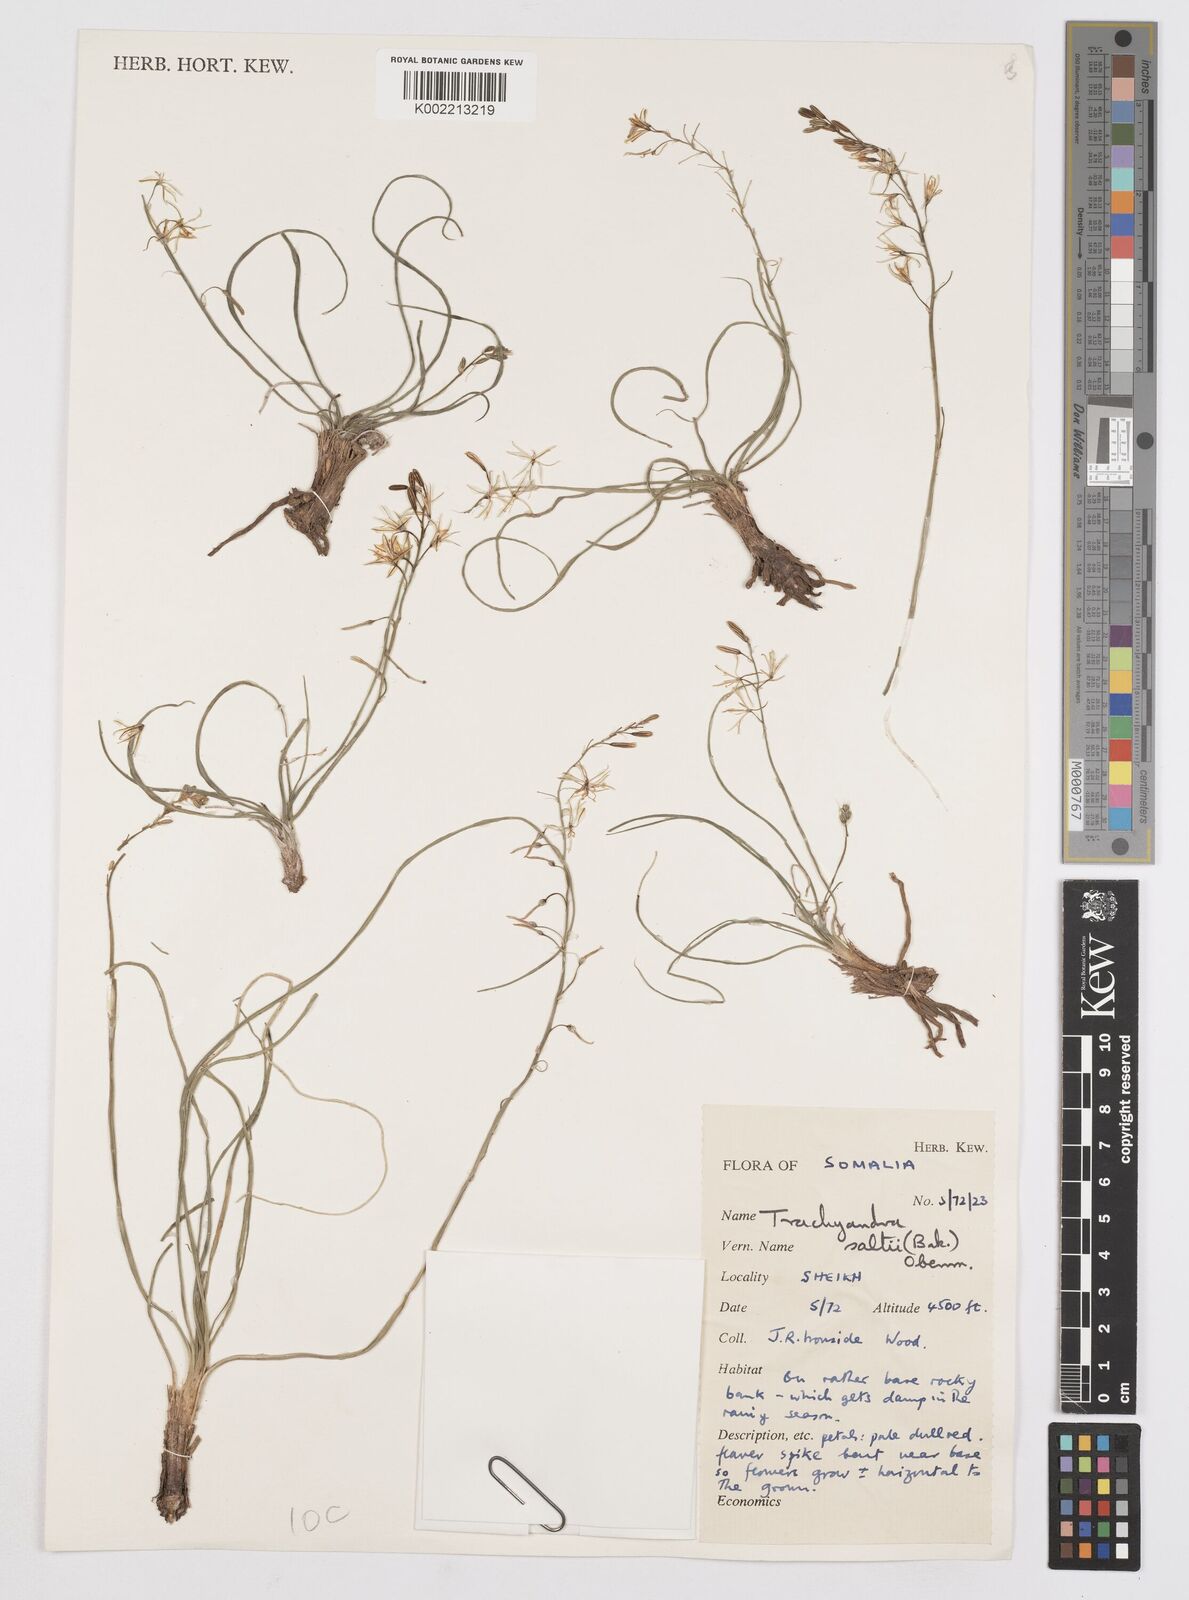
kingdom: Plantae
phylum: Tracheophyta
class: Liliopsida
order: Asparagales
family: Asphodelaceae
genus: Trachyandra
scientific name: Trachyandra saltii
